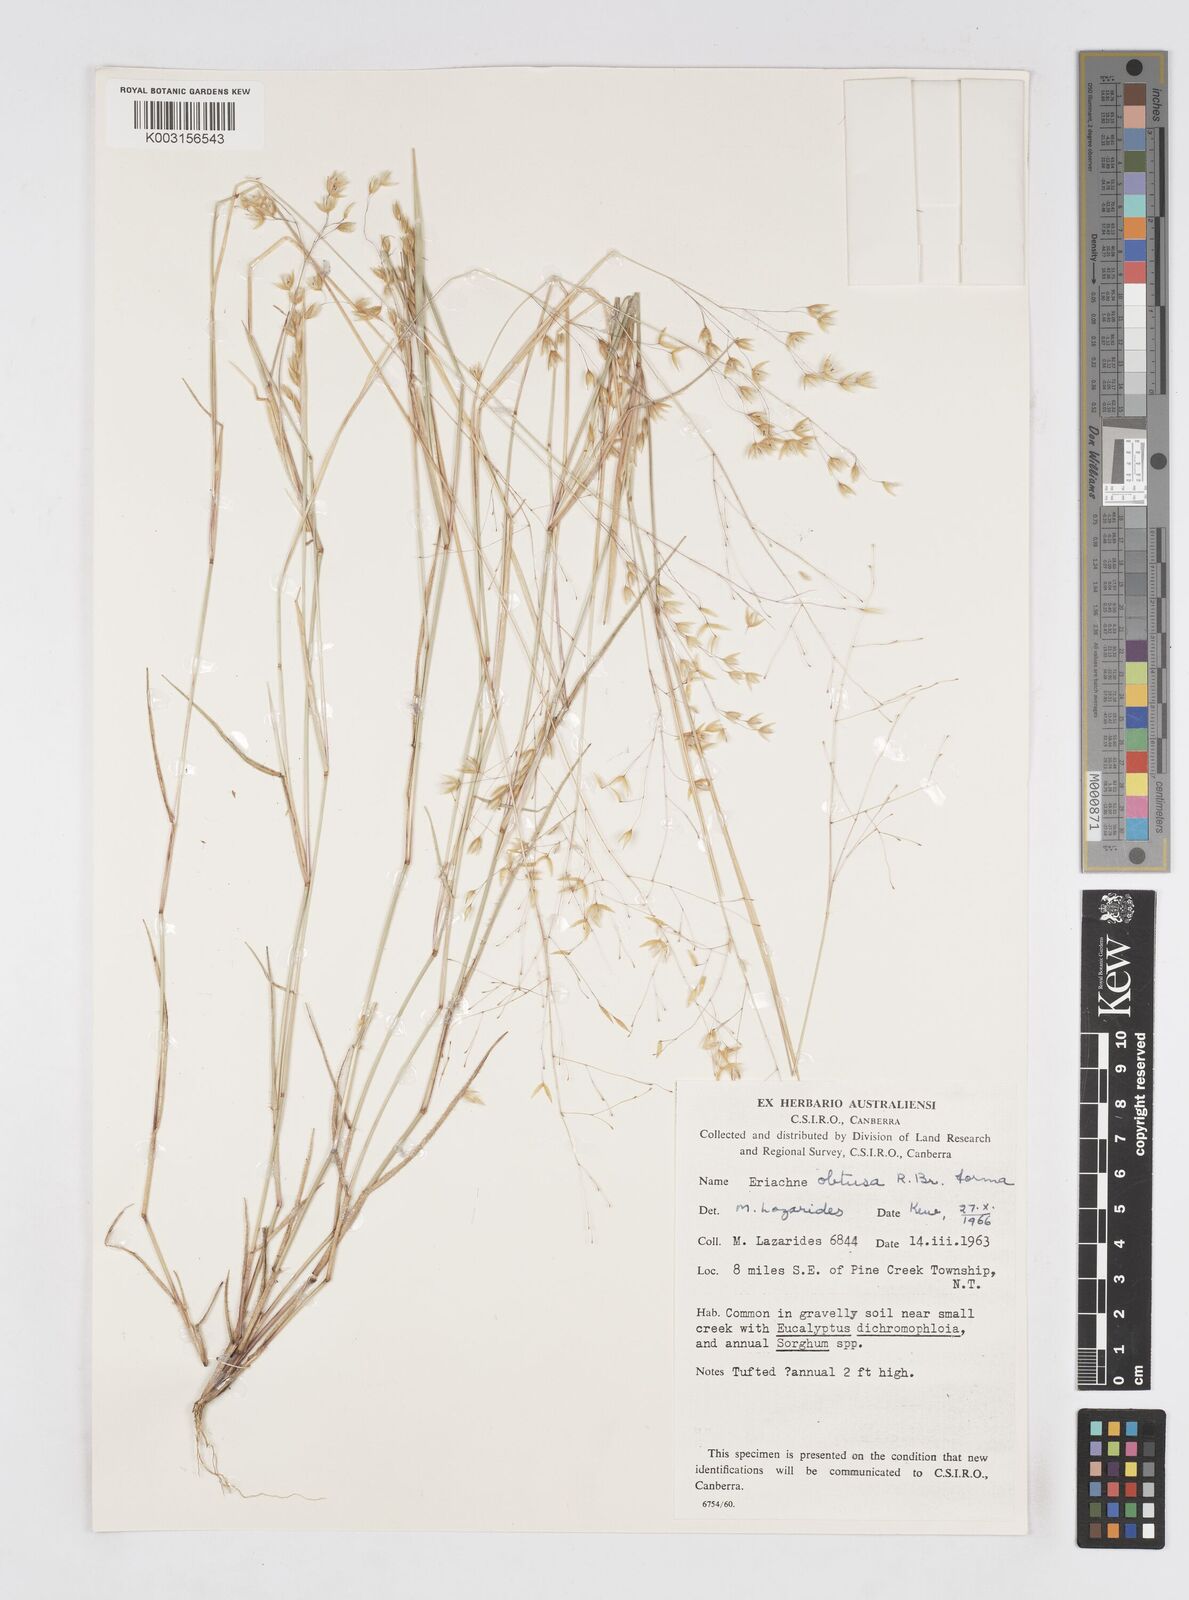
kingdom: Plantae
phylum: Tracheophyta
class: Liliopsida
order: Poales
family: Poaceae
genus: Eriachne
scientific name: Eriachne obtusa
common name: Northern wanderrie grass
